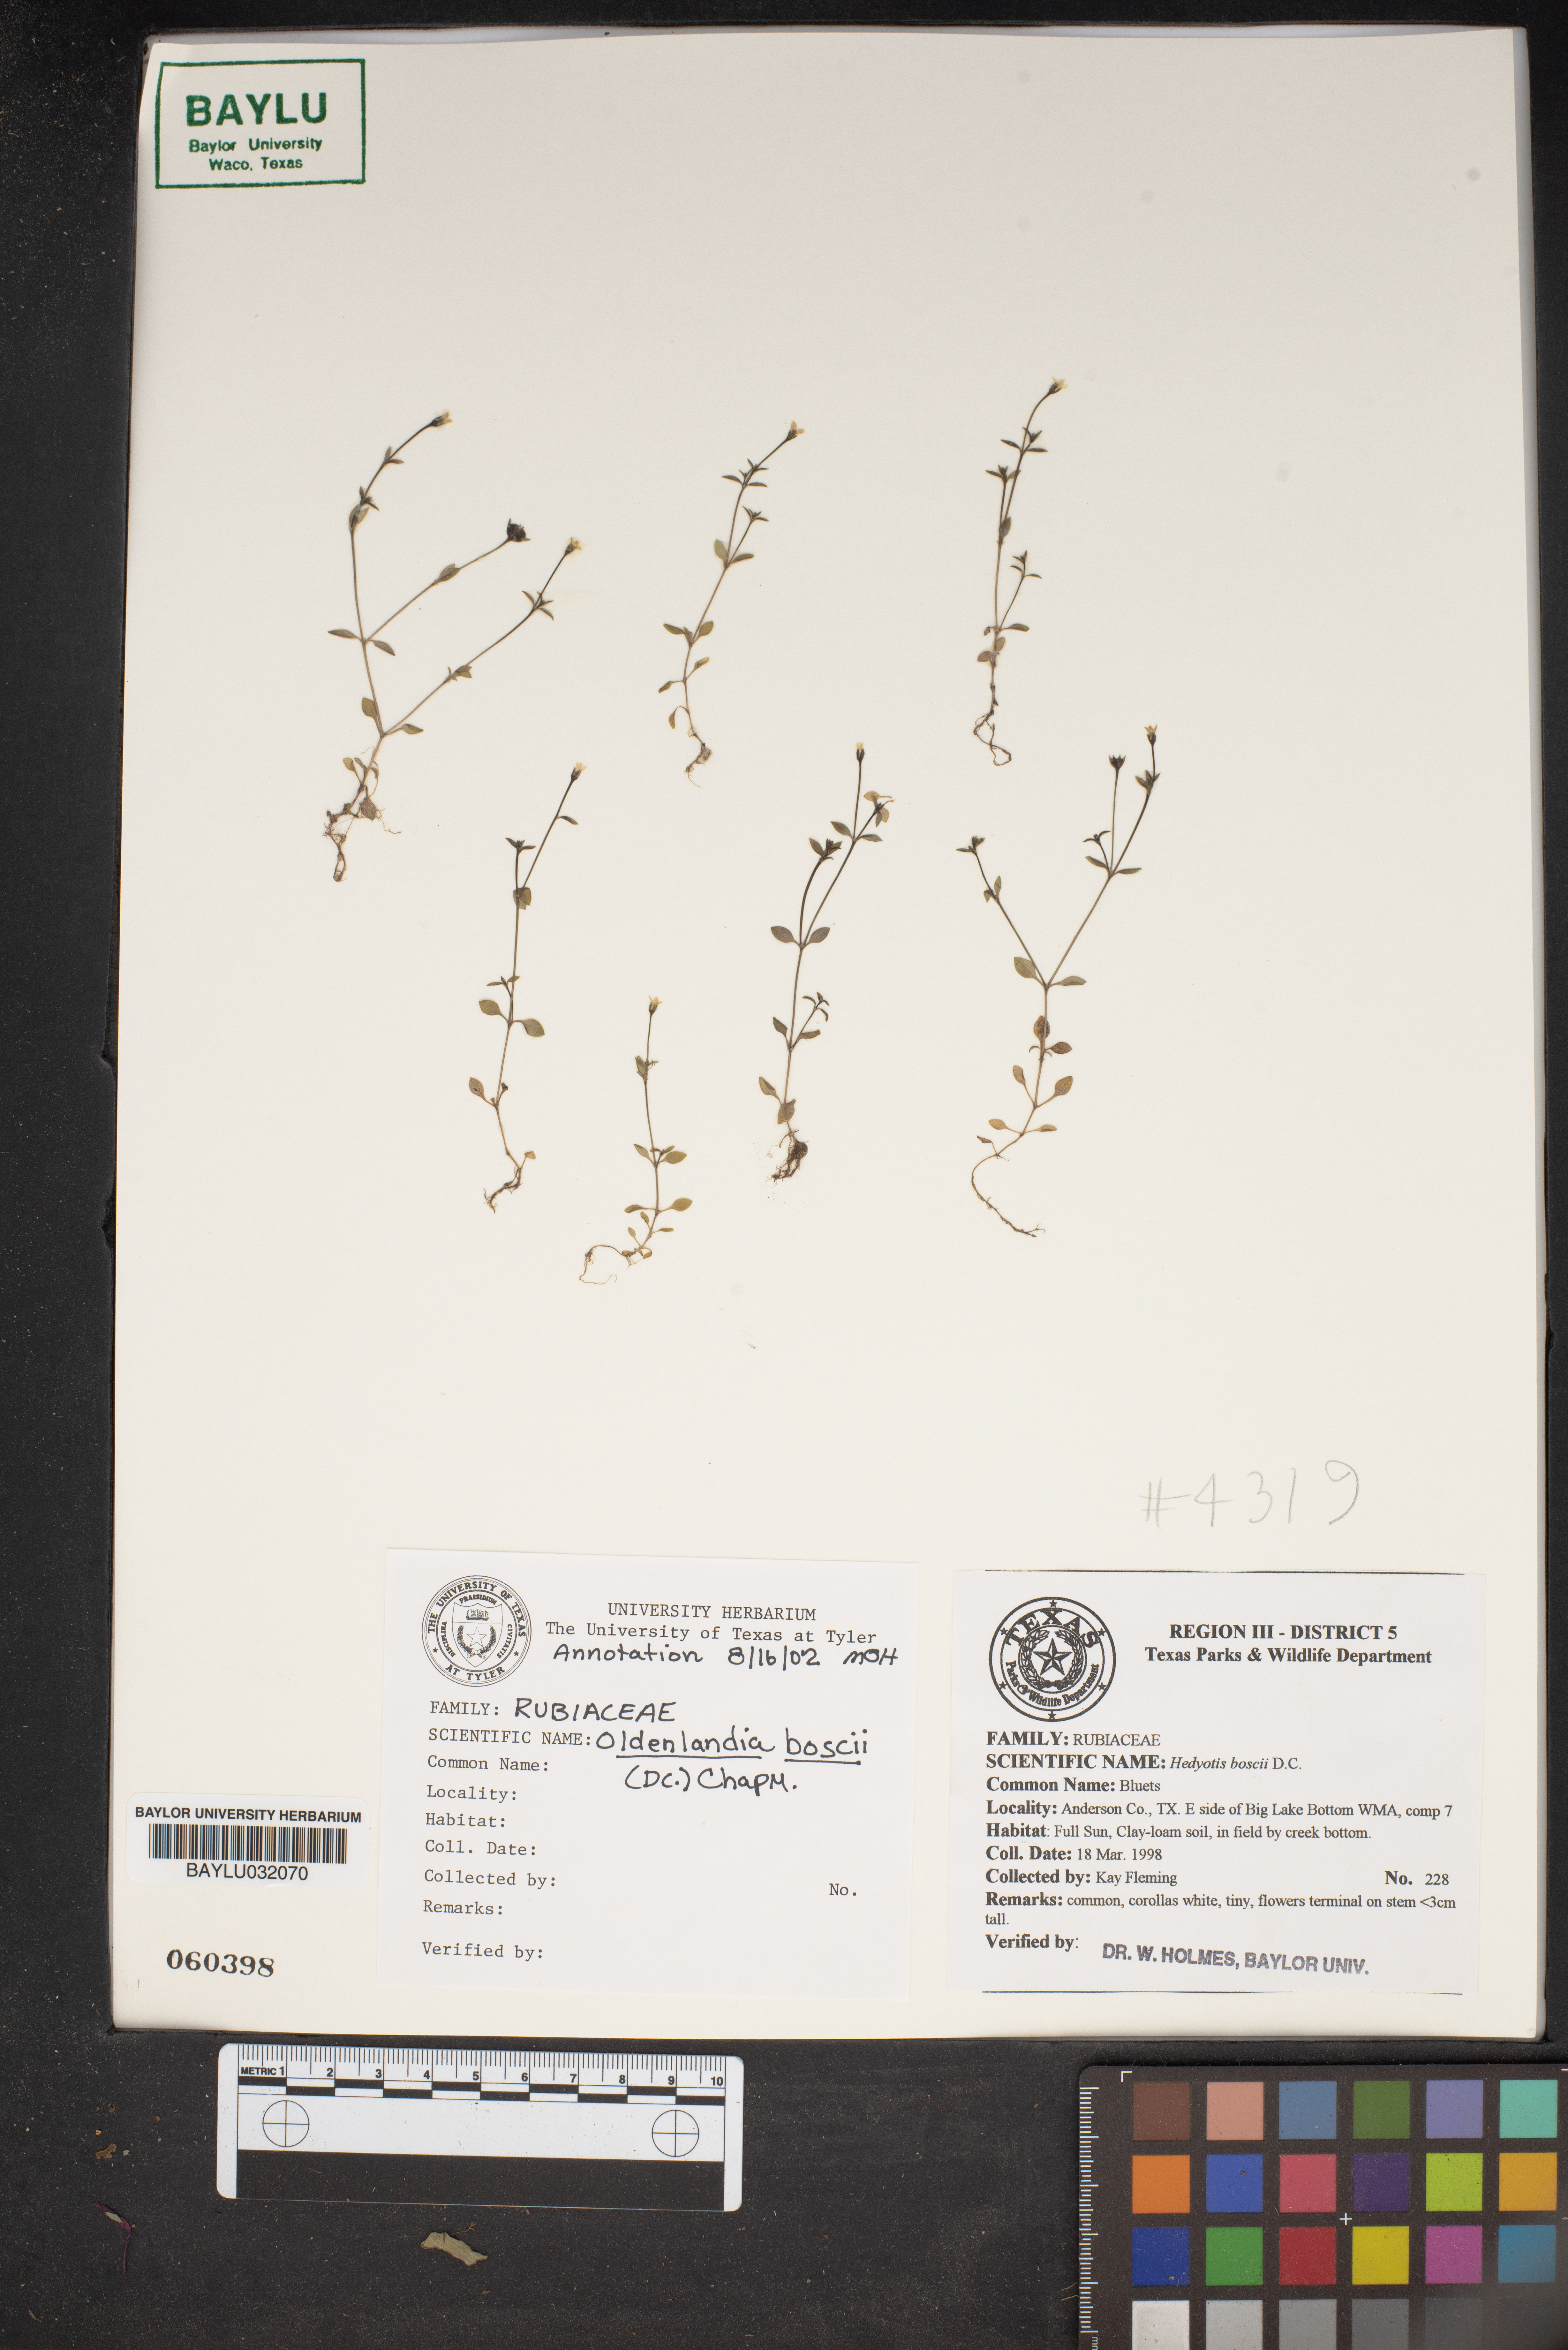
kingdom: Plantae
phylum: Tracheophyta
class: Magnoliopsida
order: Gentianales
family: Rubiaceae
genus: Oldenlandia
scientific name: Oldenlandia boscii
